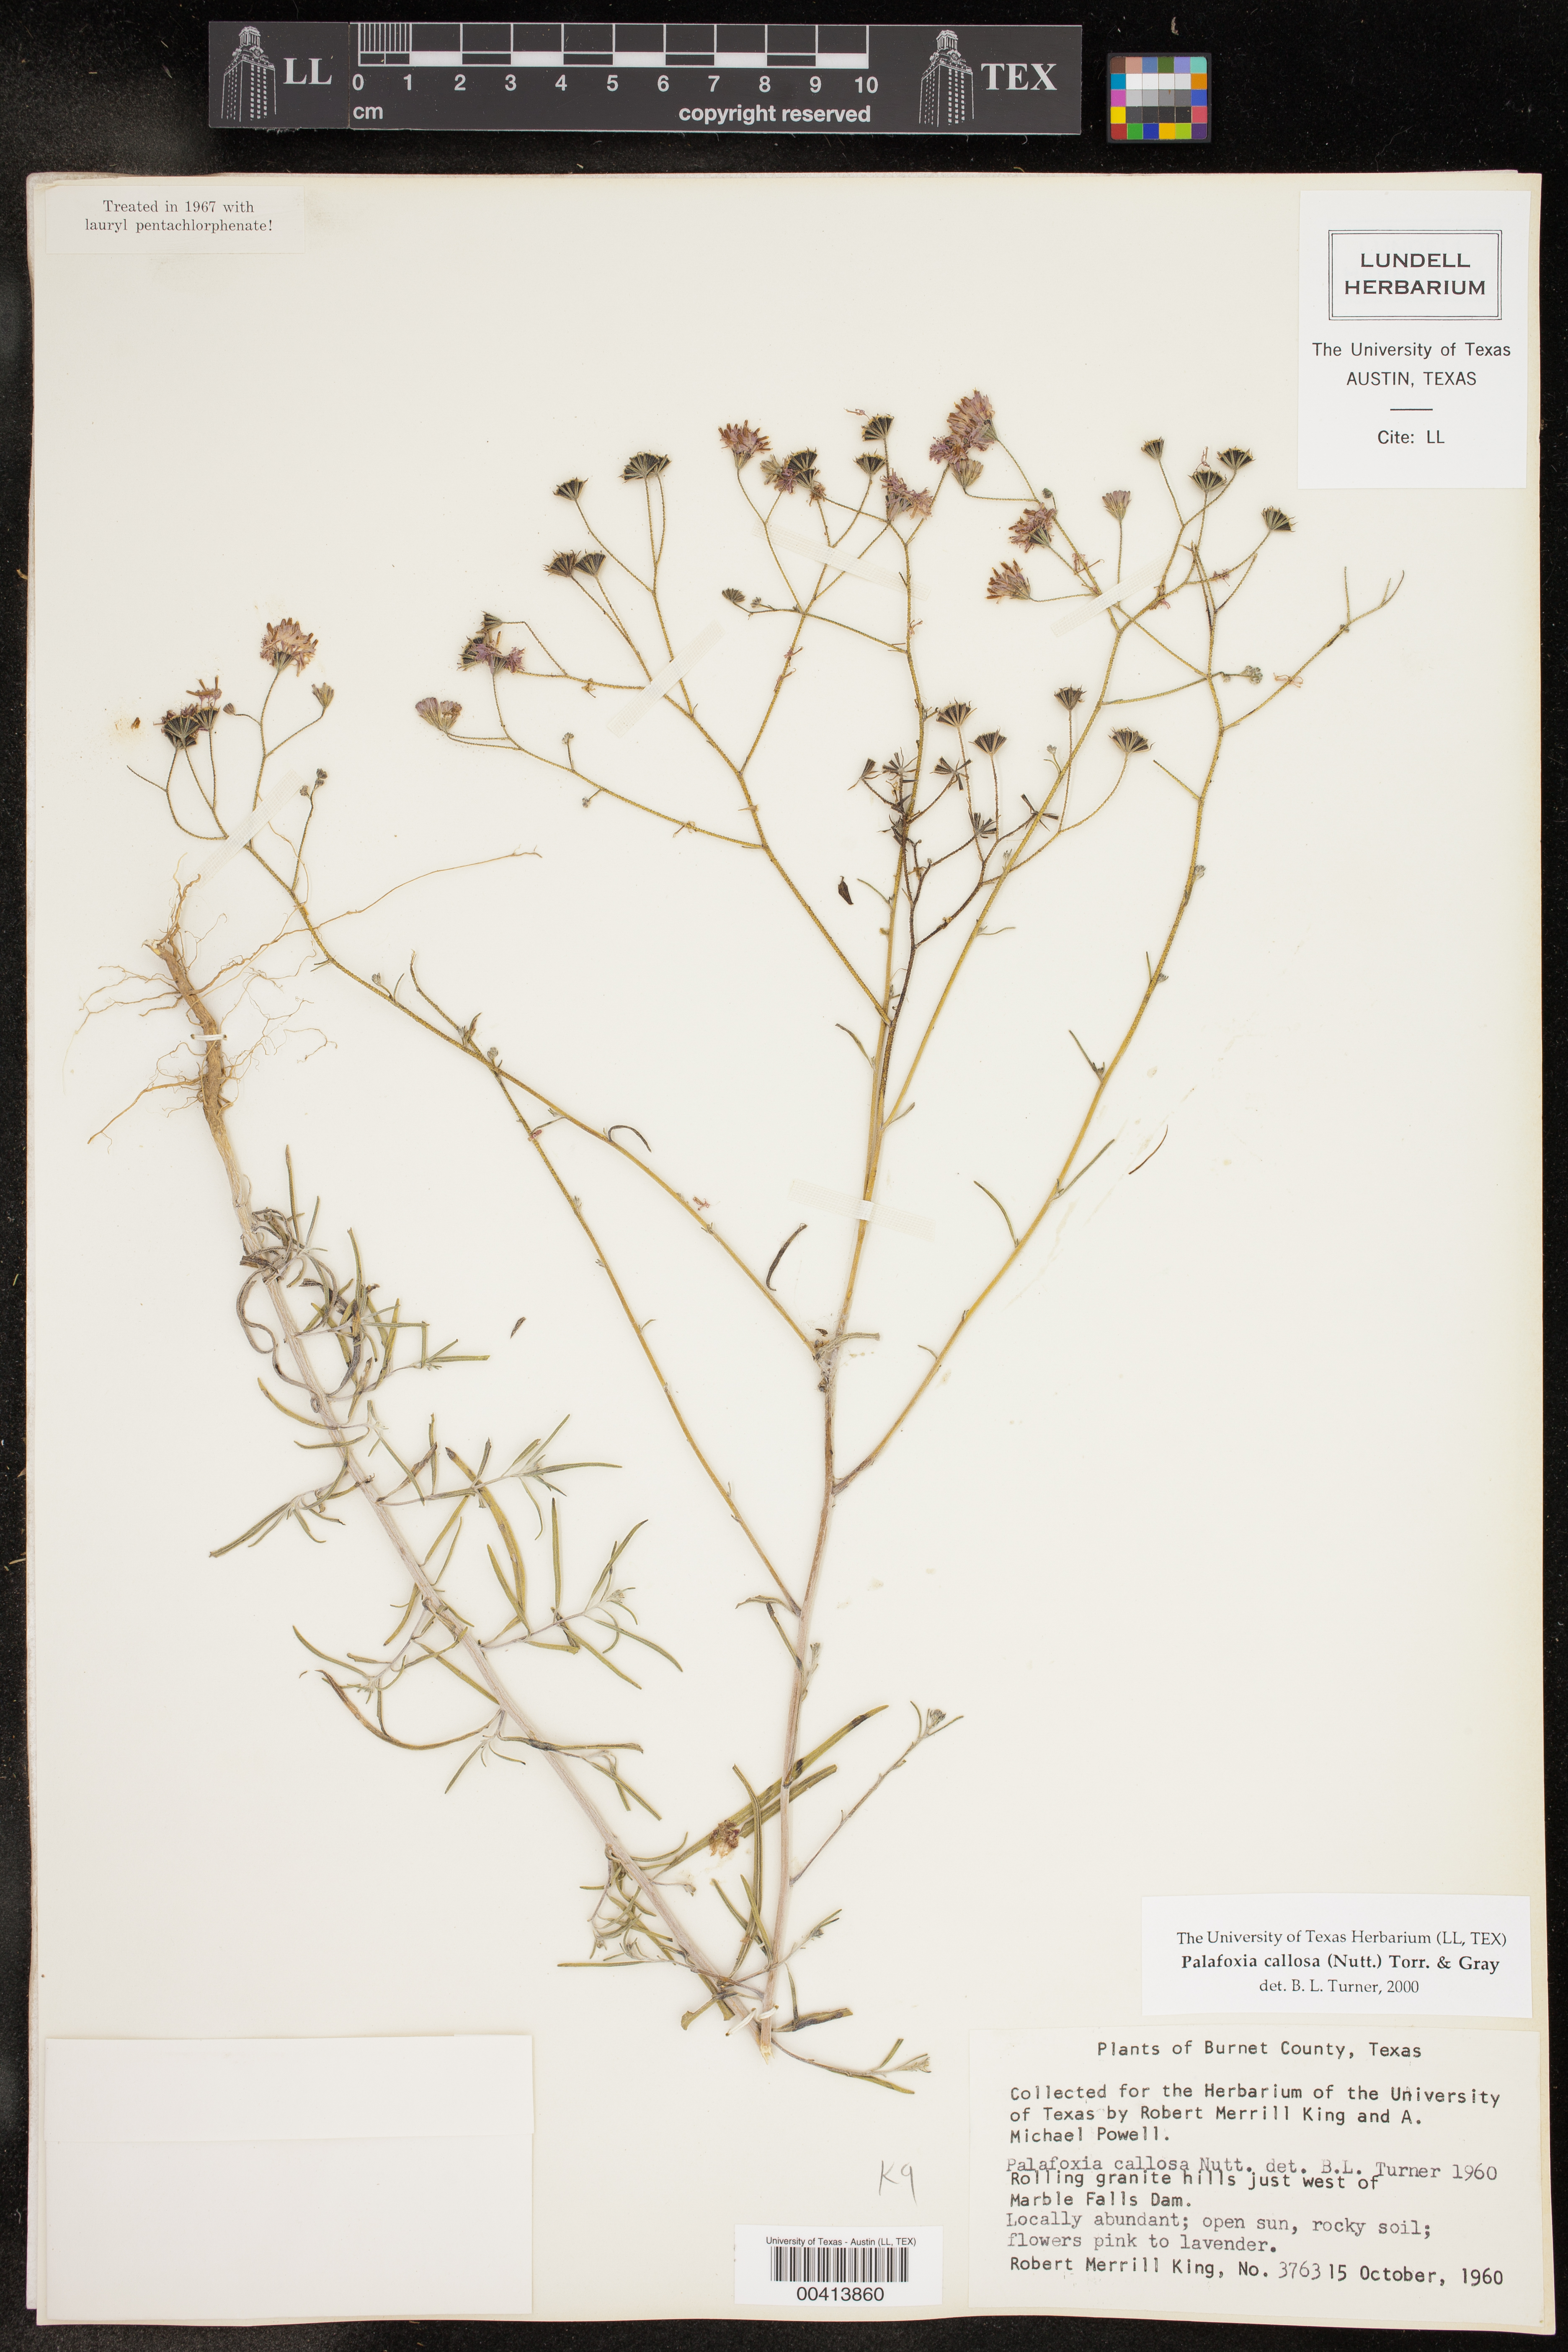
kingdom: Plantae
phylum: Tracheophyta
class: Magnoliopsida
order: Asterales
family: Asteraceae
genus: Palafoxia
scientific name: Palafoxia callosa
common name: Small palafox
